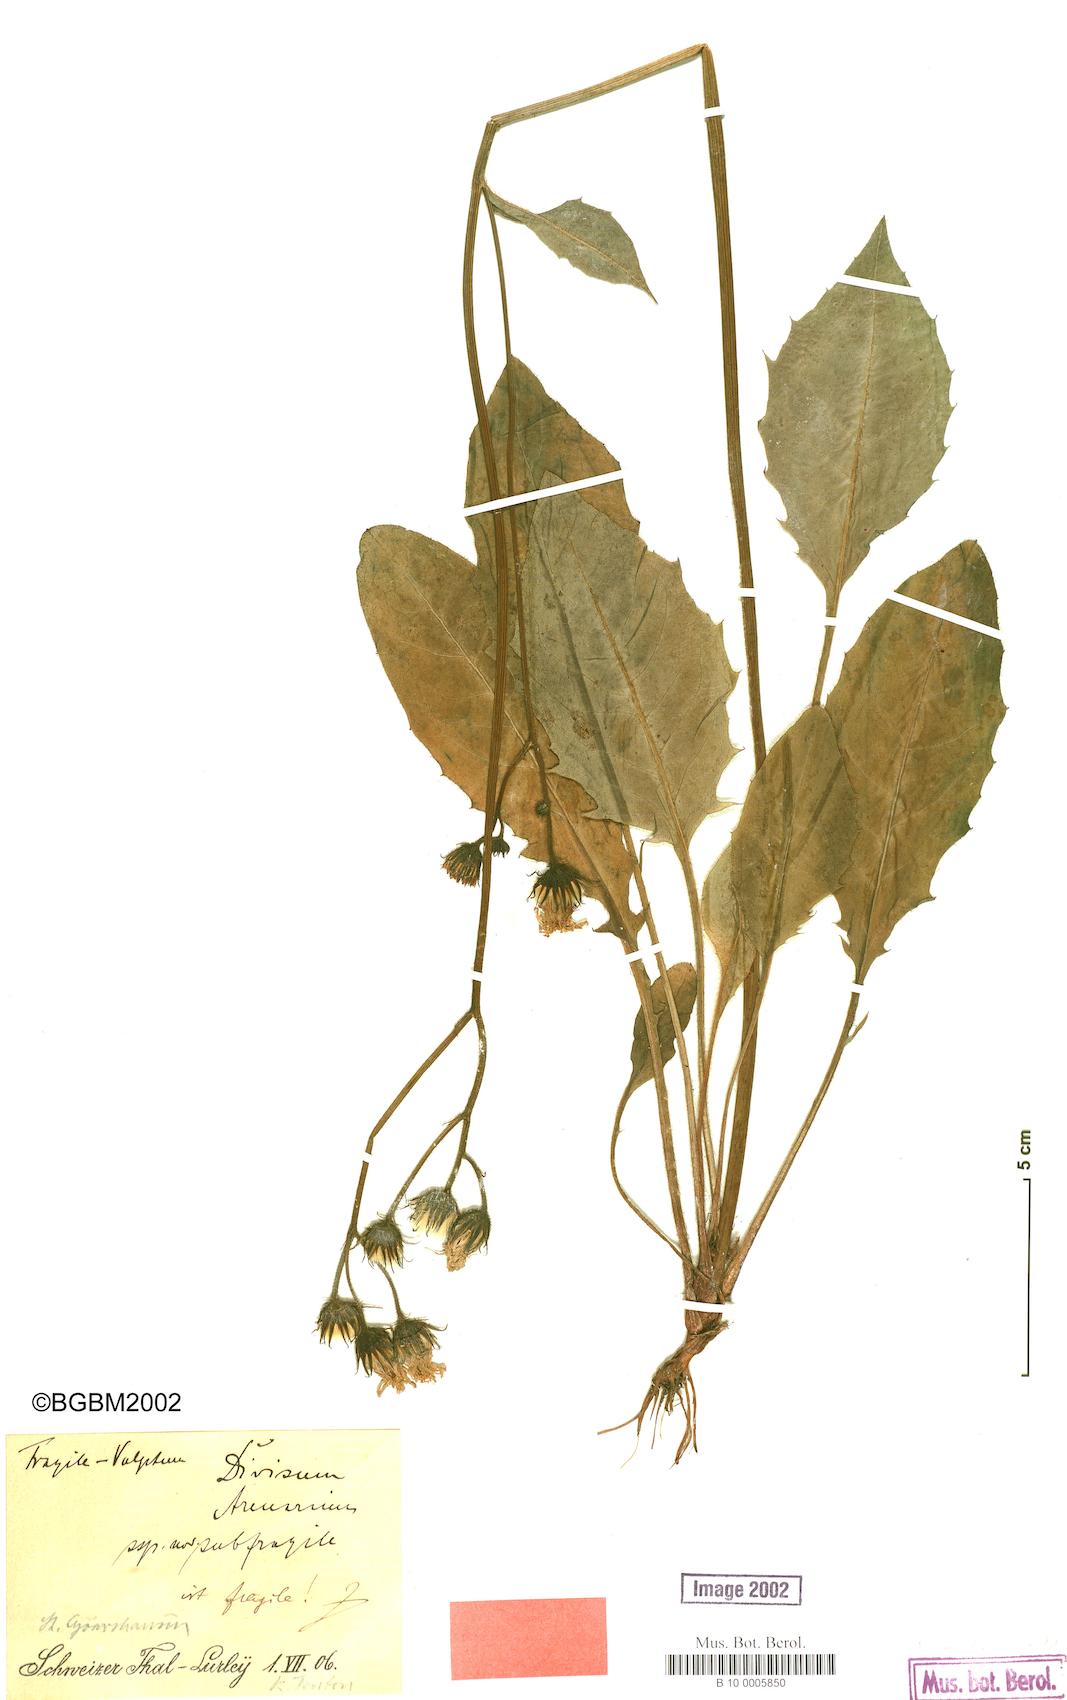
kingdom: Plantae
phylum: Tracheophyta
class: Magnoliopsida
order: Asterales
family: Asteraceae
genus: Hieracium
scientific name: Hieracium glaucinum
